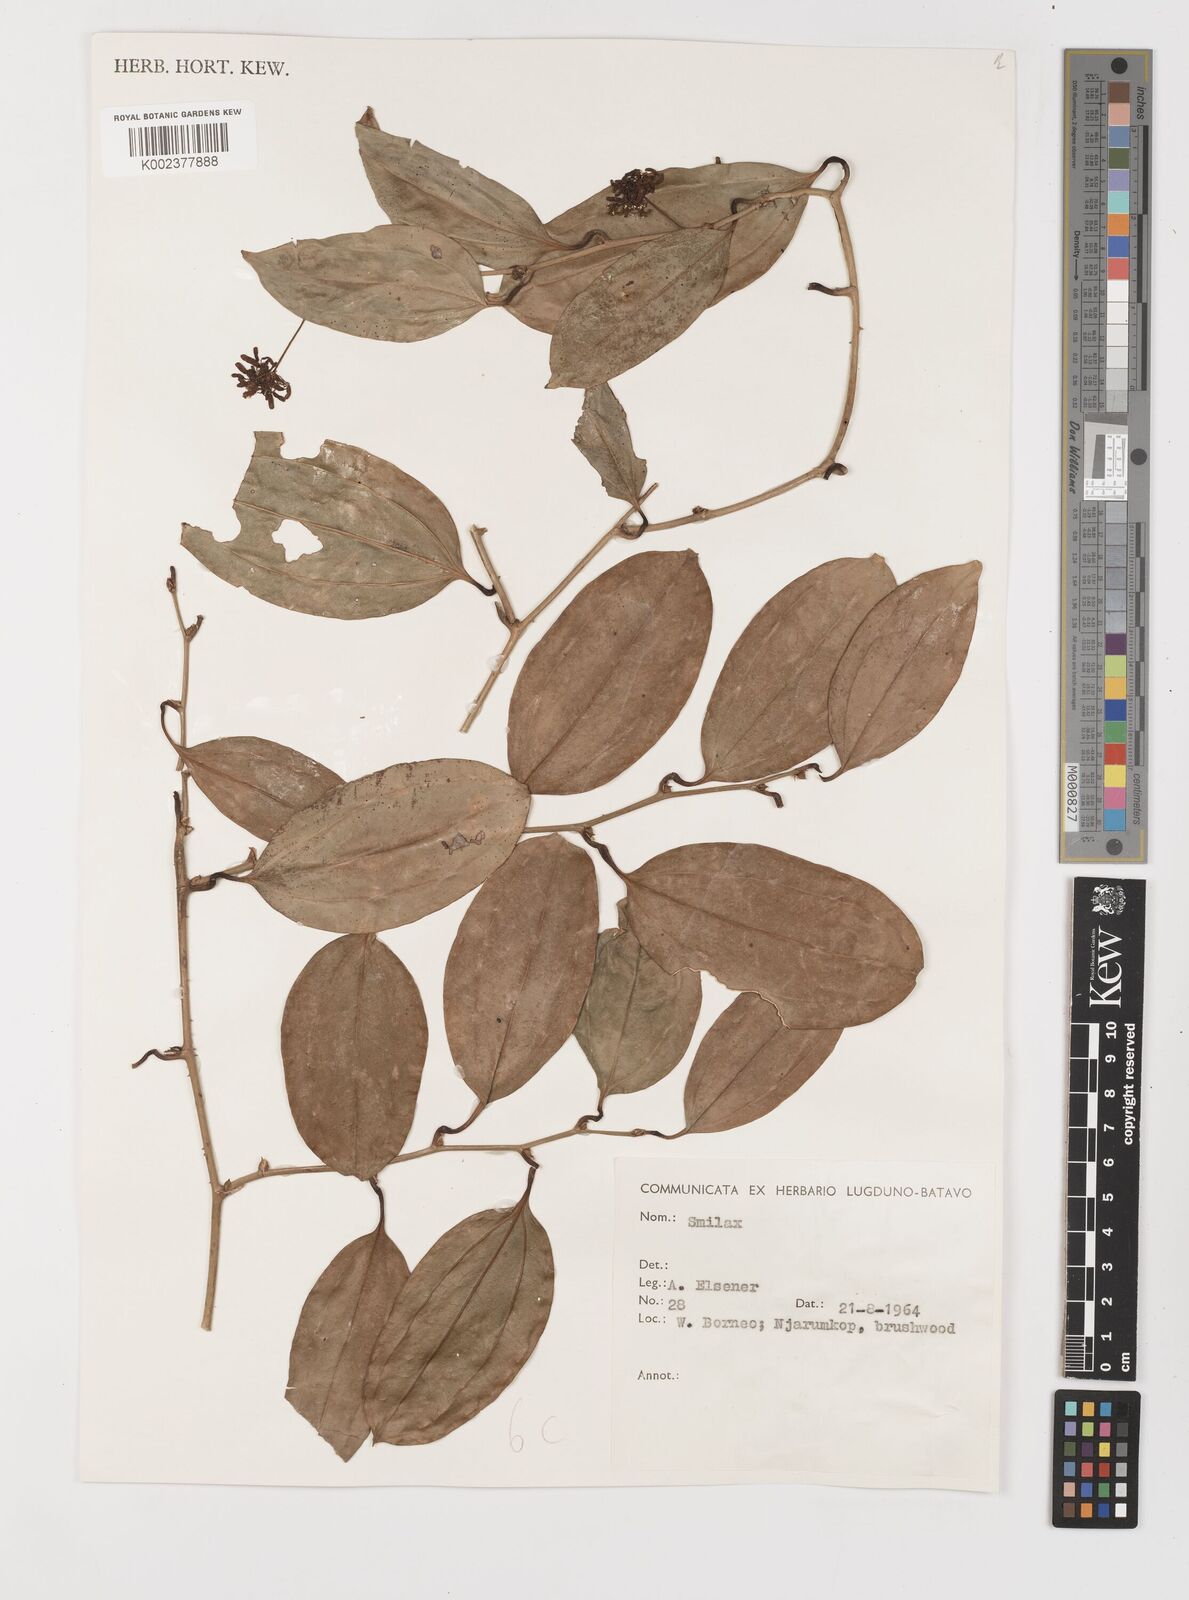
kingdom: Plantae
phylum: Tracheophyta
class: Liliopsida
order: Liliales
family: Smilacaceae
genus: Smilax
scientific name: Smilax
